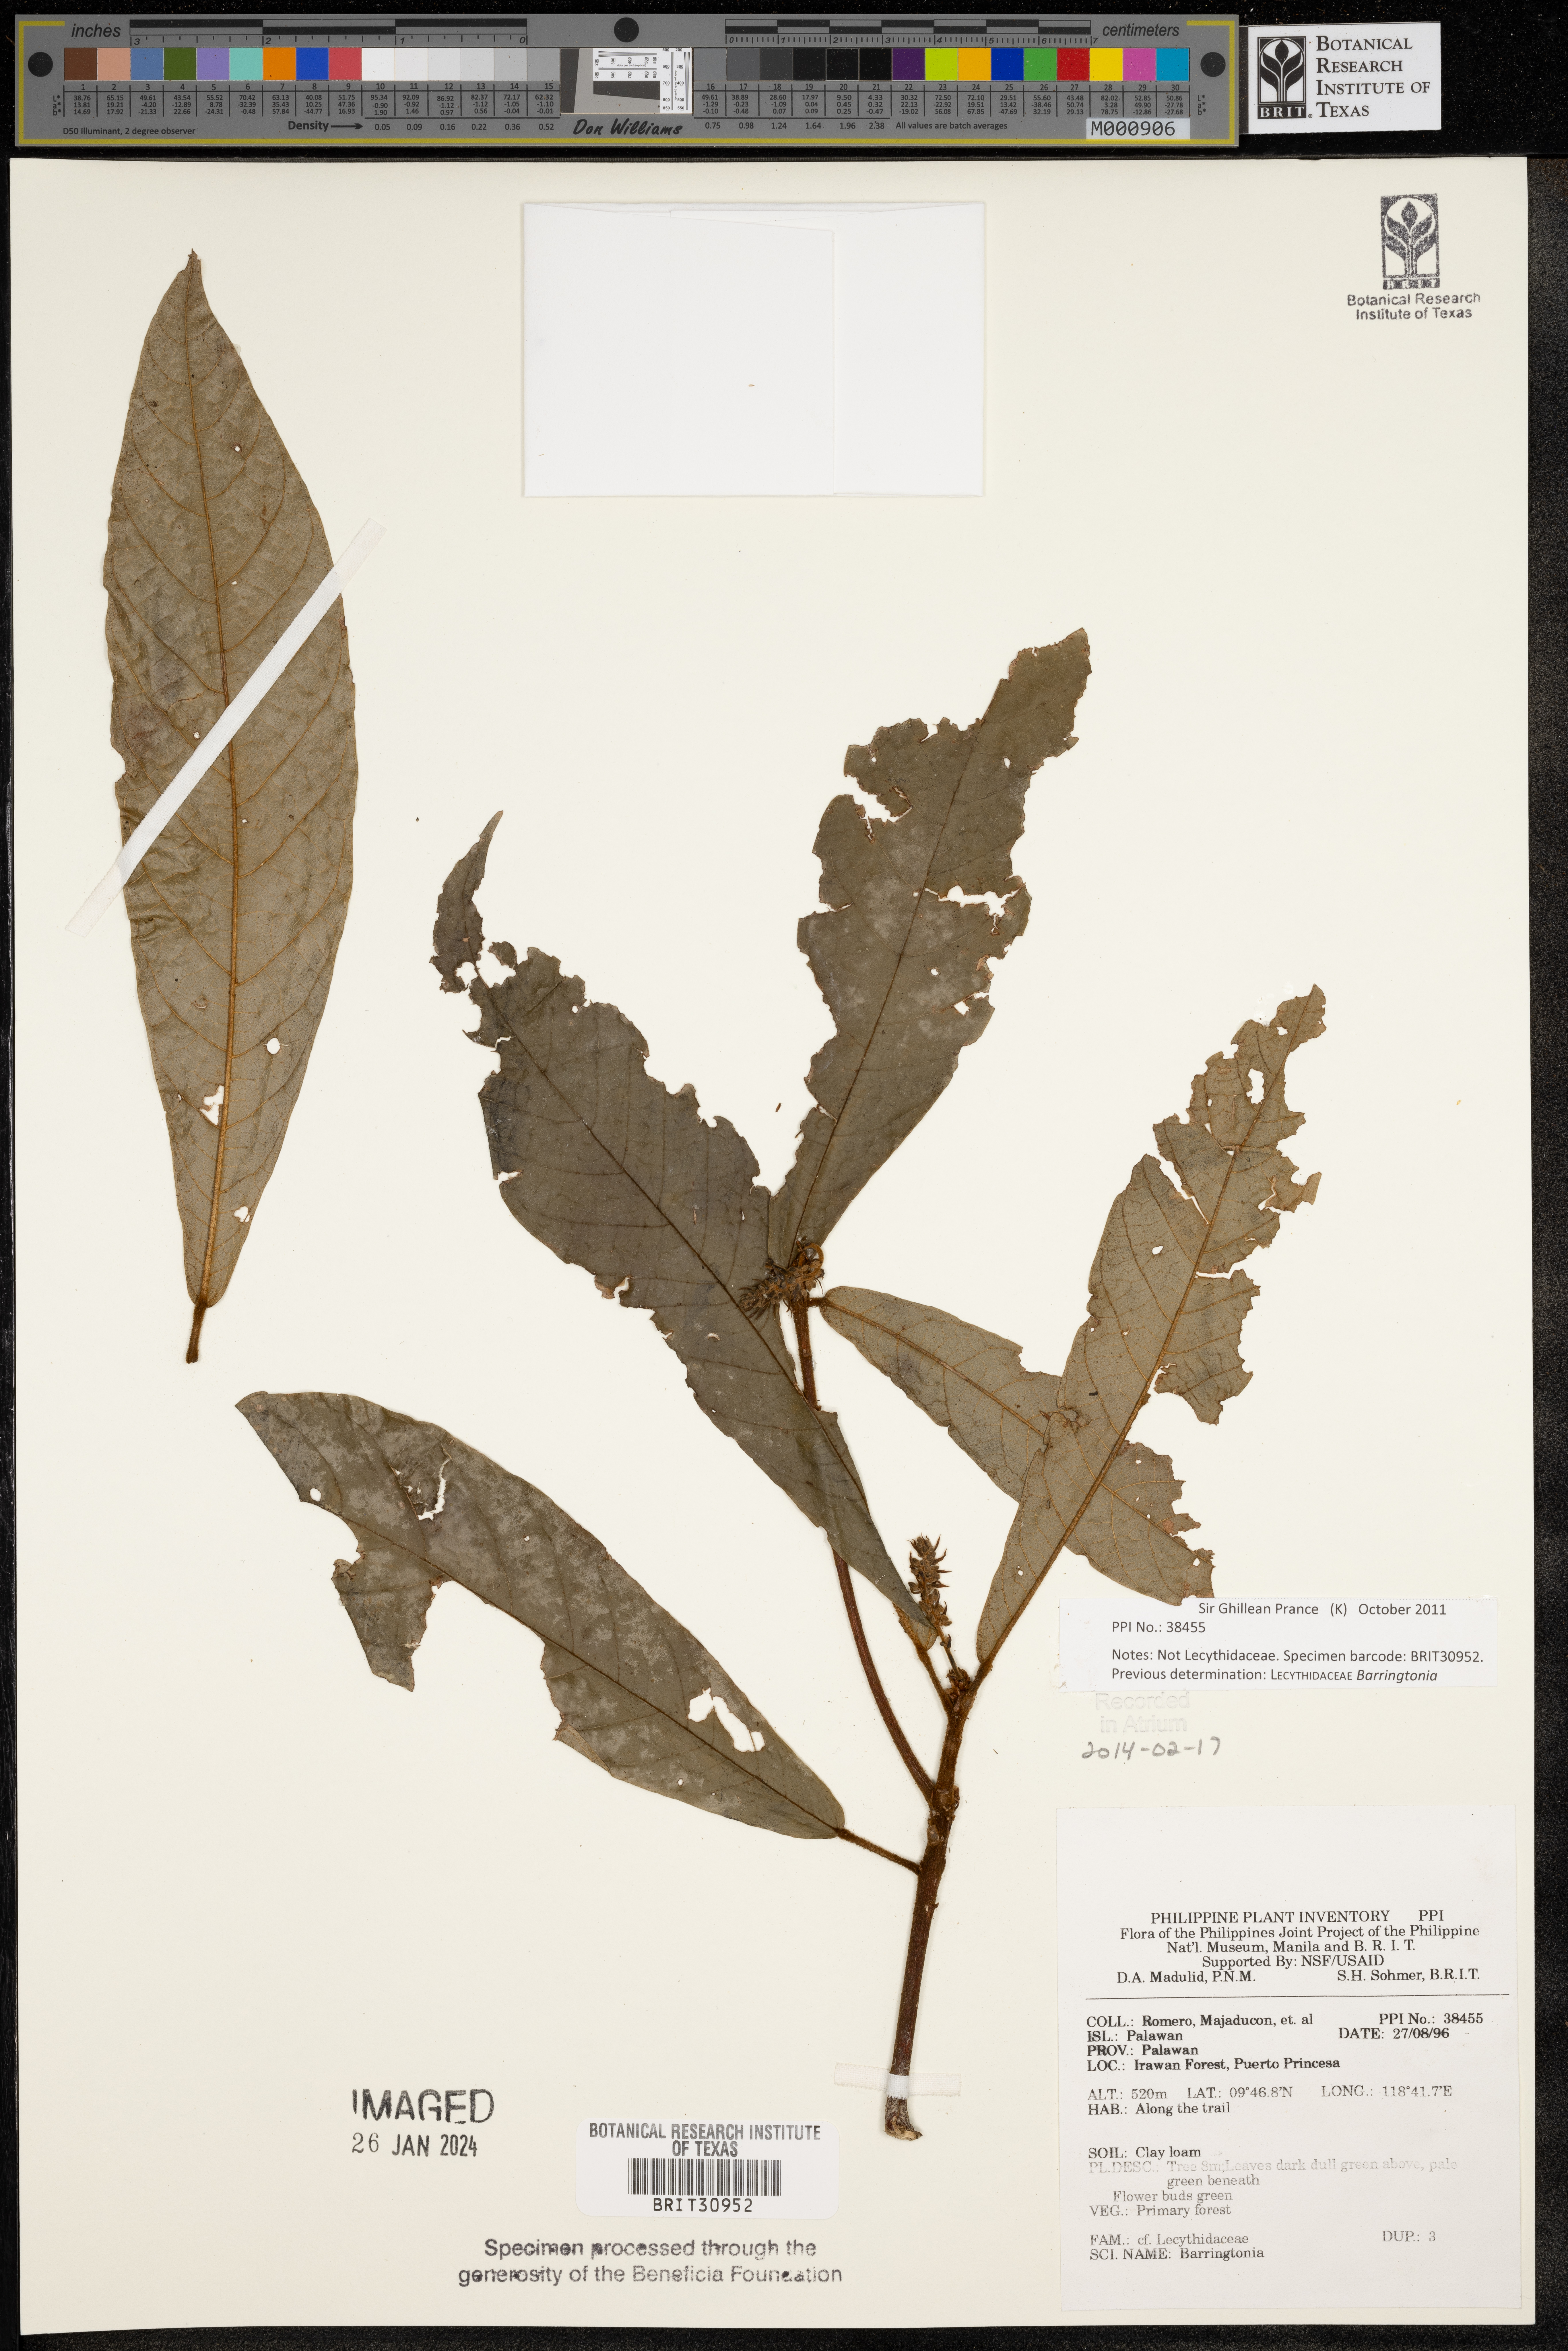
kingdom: Plantae
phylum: Tracheophyta
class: Magnoliopsida
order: Ericales
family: Lecythidaceae
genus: Barringtonia
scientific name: Barringtonia
